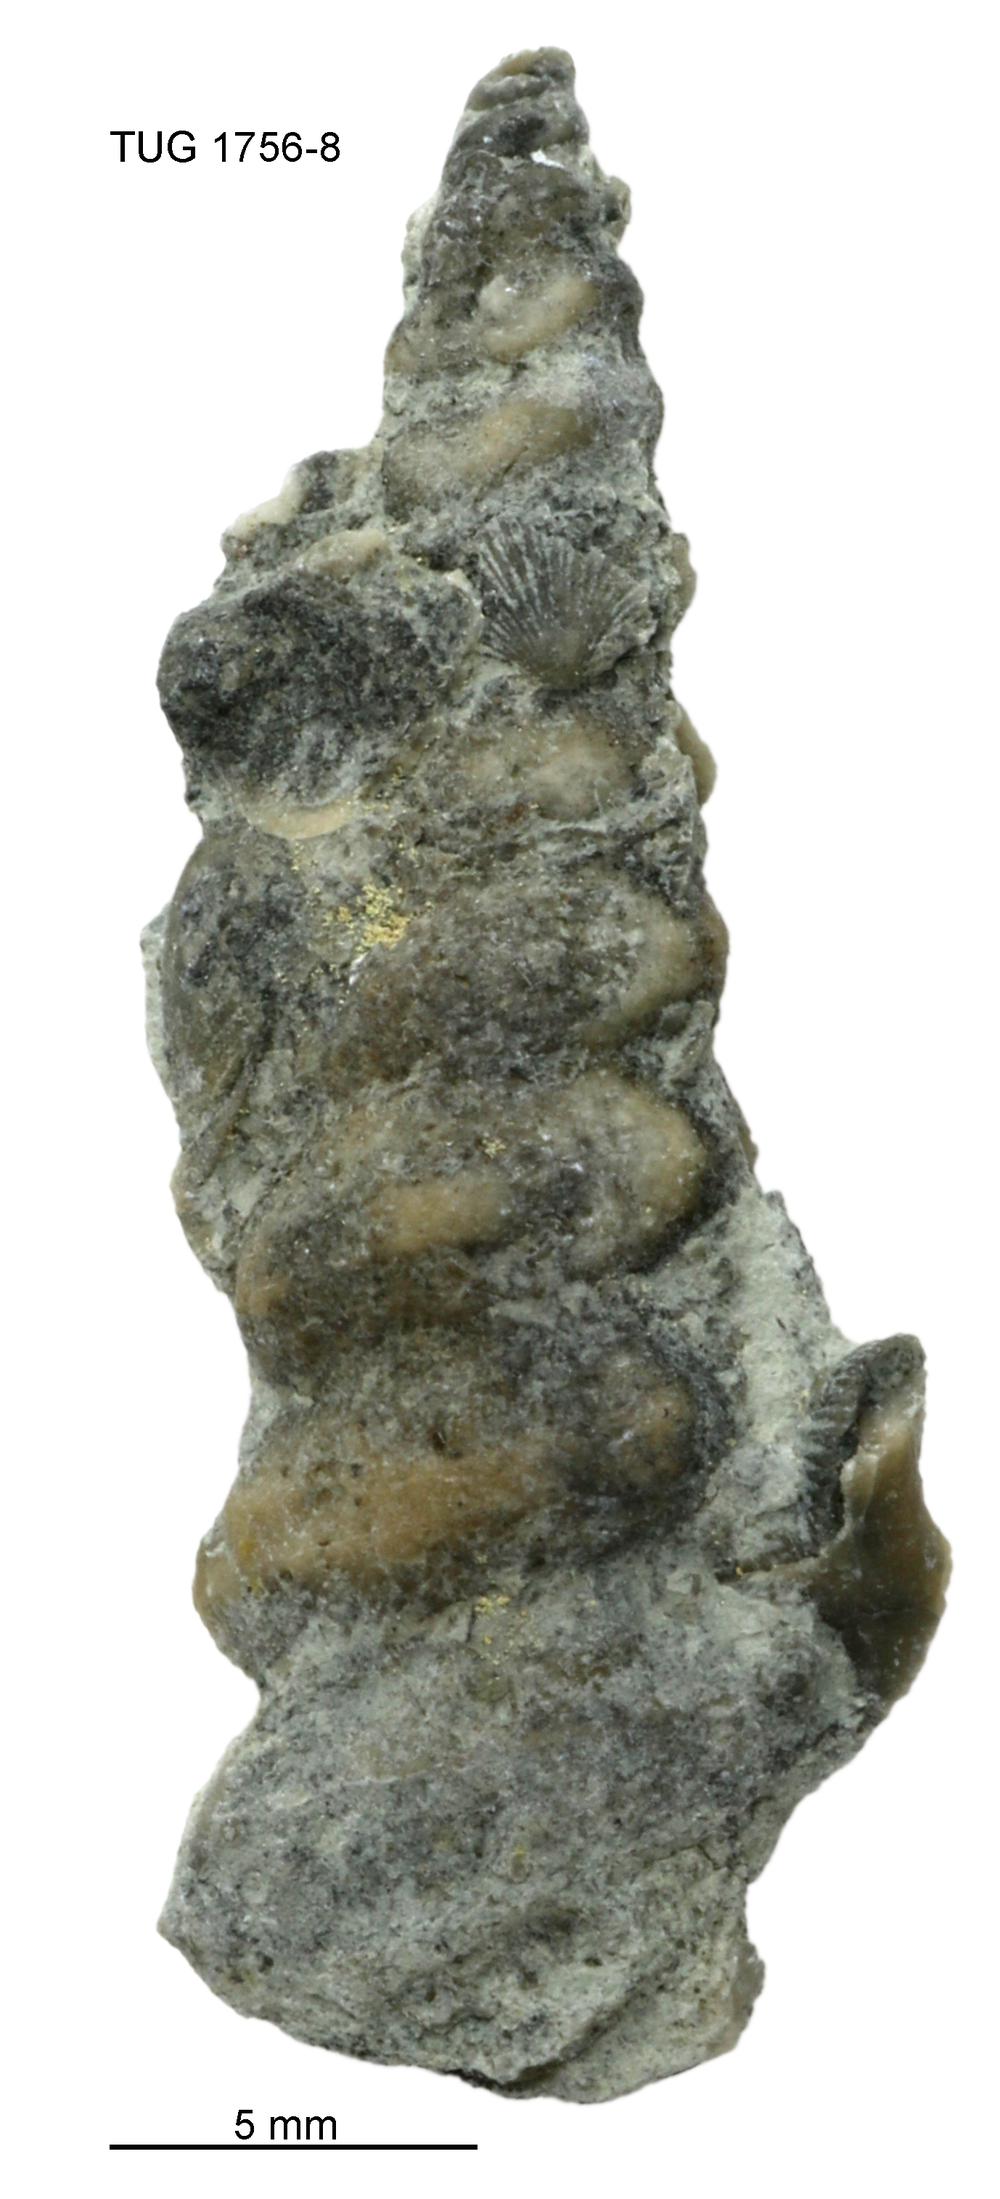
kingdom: Animalia
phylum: Mollusca
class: Gastropoda
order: Pleurotomariida
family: Murchisoniidae
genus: Hormotoma
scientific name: Hormotoma
